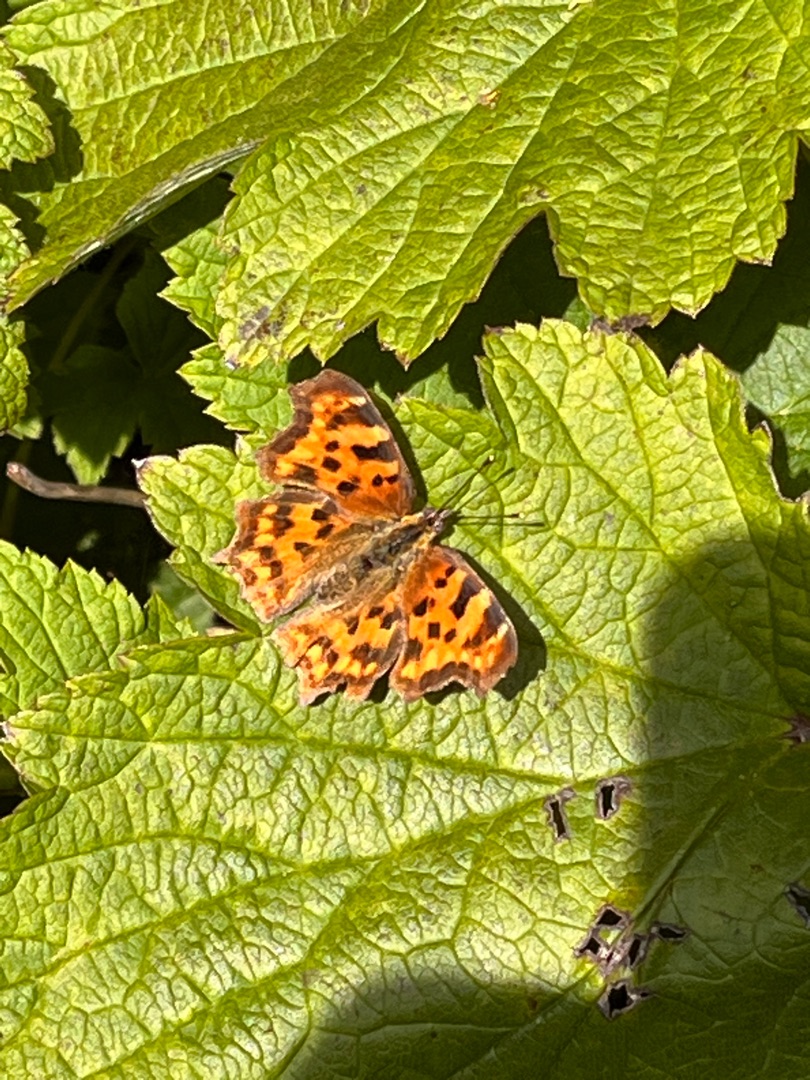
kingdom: Animalia
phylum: Arthropoda
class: Insecta
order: Lepidoptera
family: Nymphalidae
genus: Polygonia
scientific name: Polygonia c-album
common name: Det hvide C
